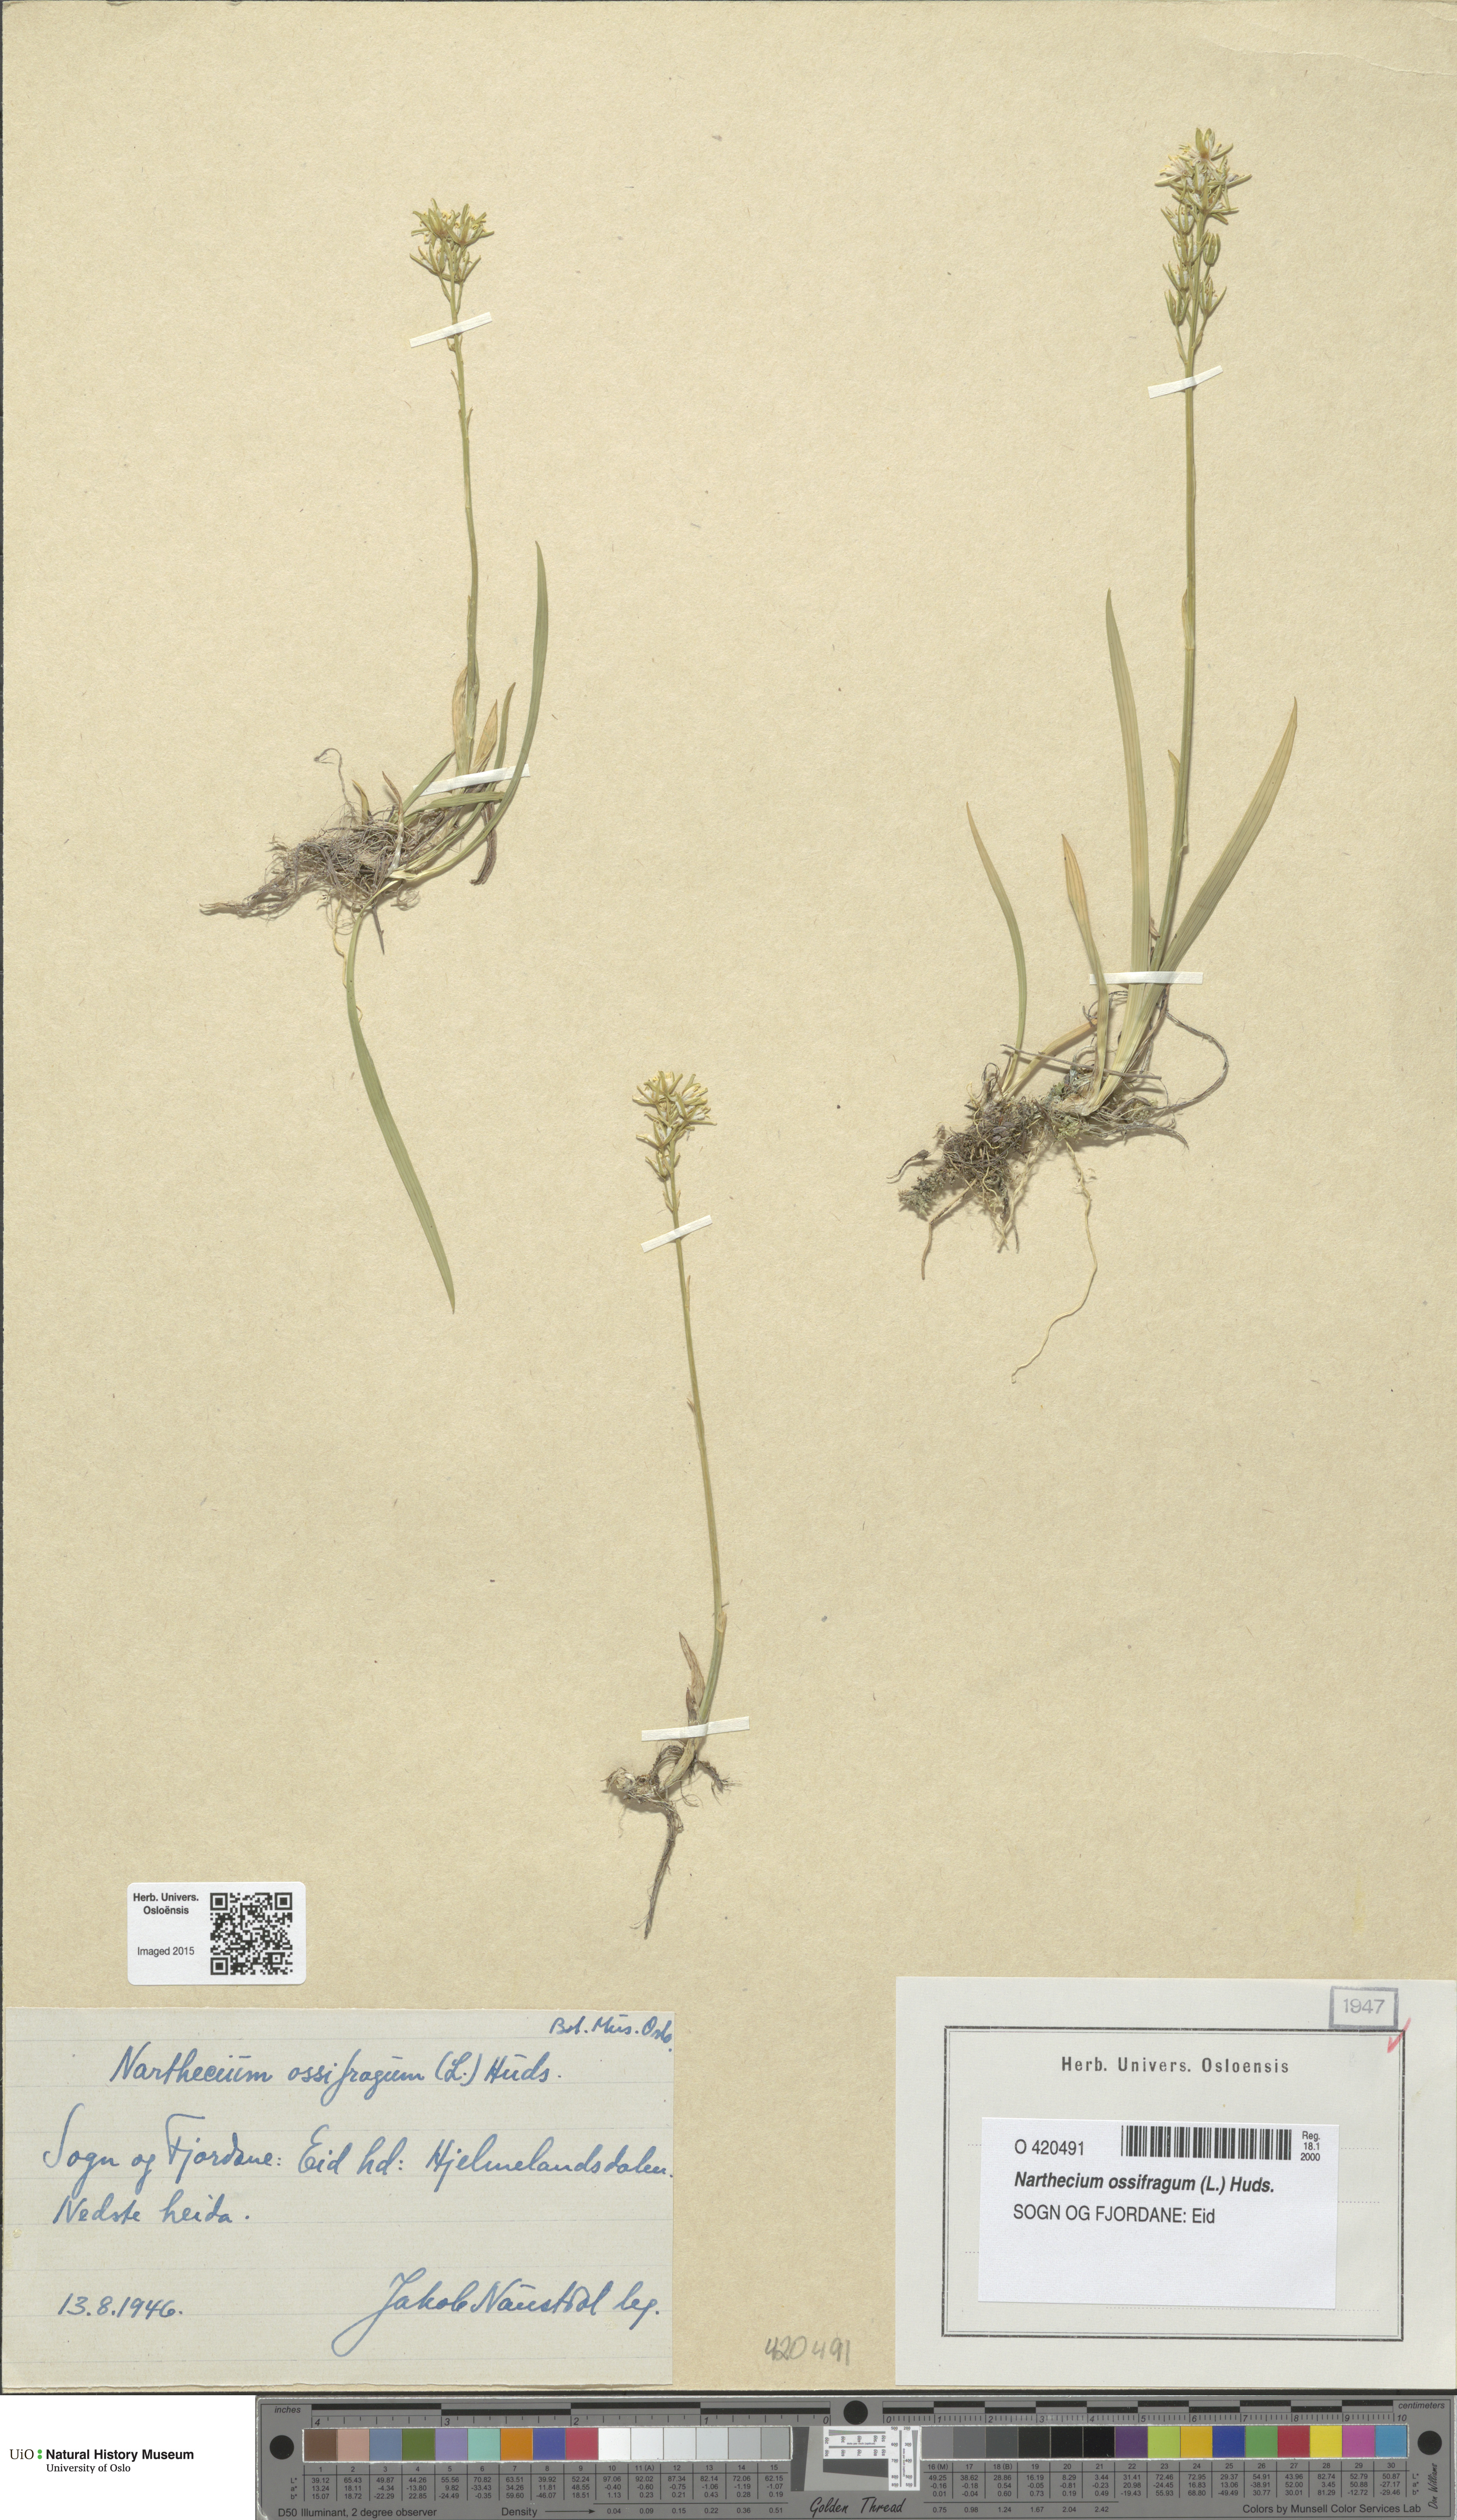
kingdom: Plantae
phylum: Tracheophyta
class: Liliopsida
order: Dioscoreales
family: Nartheciaceae
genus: Narthecium
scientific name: Narthecium ossifragum
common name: Bog asphodel
